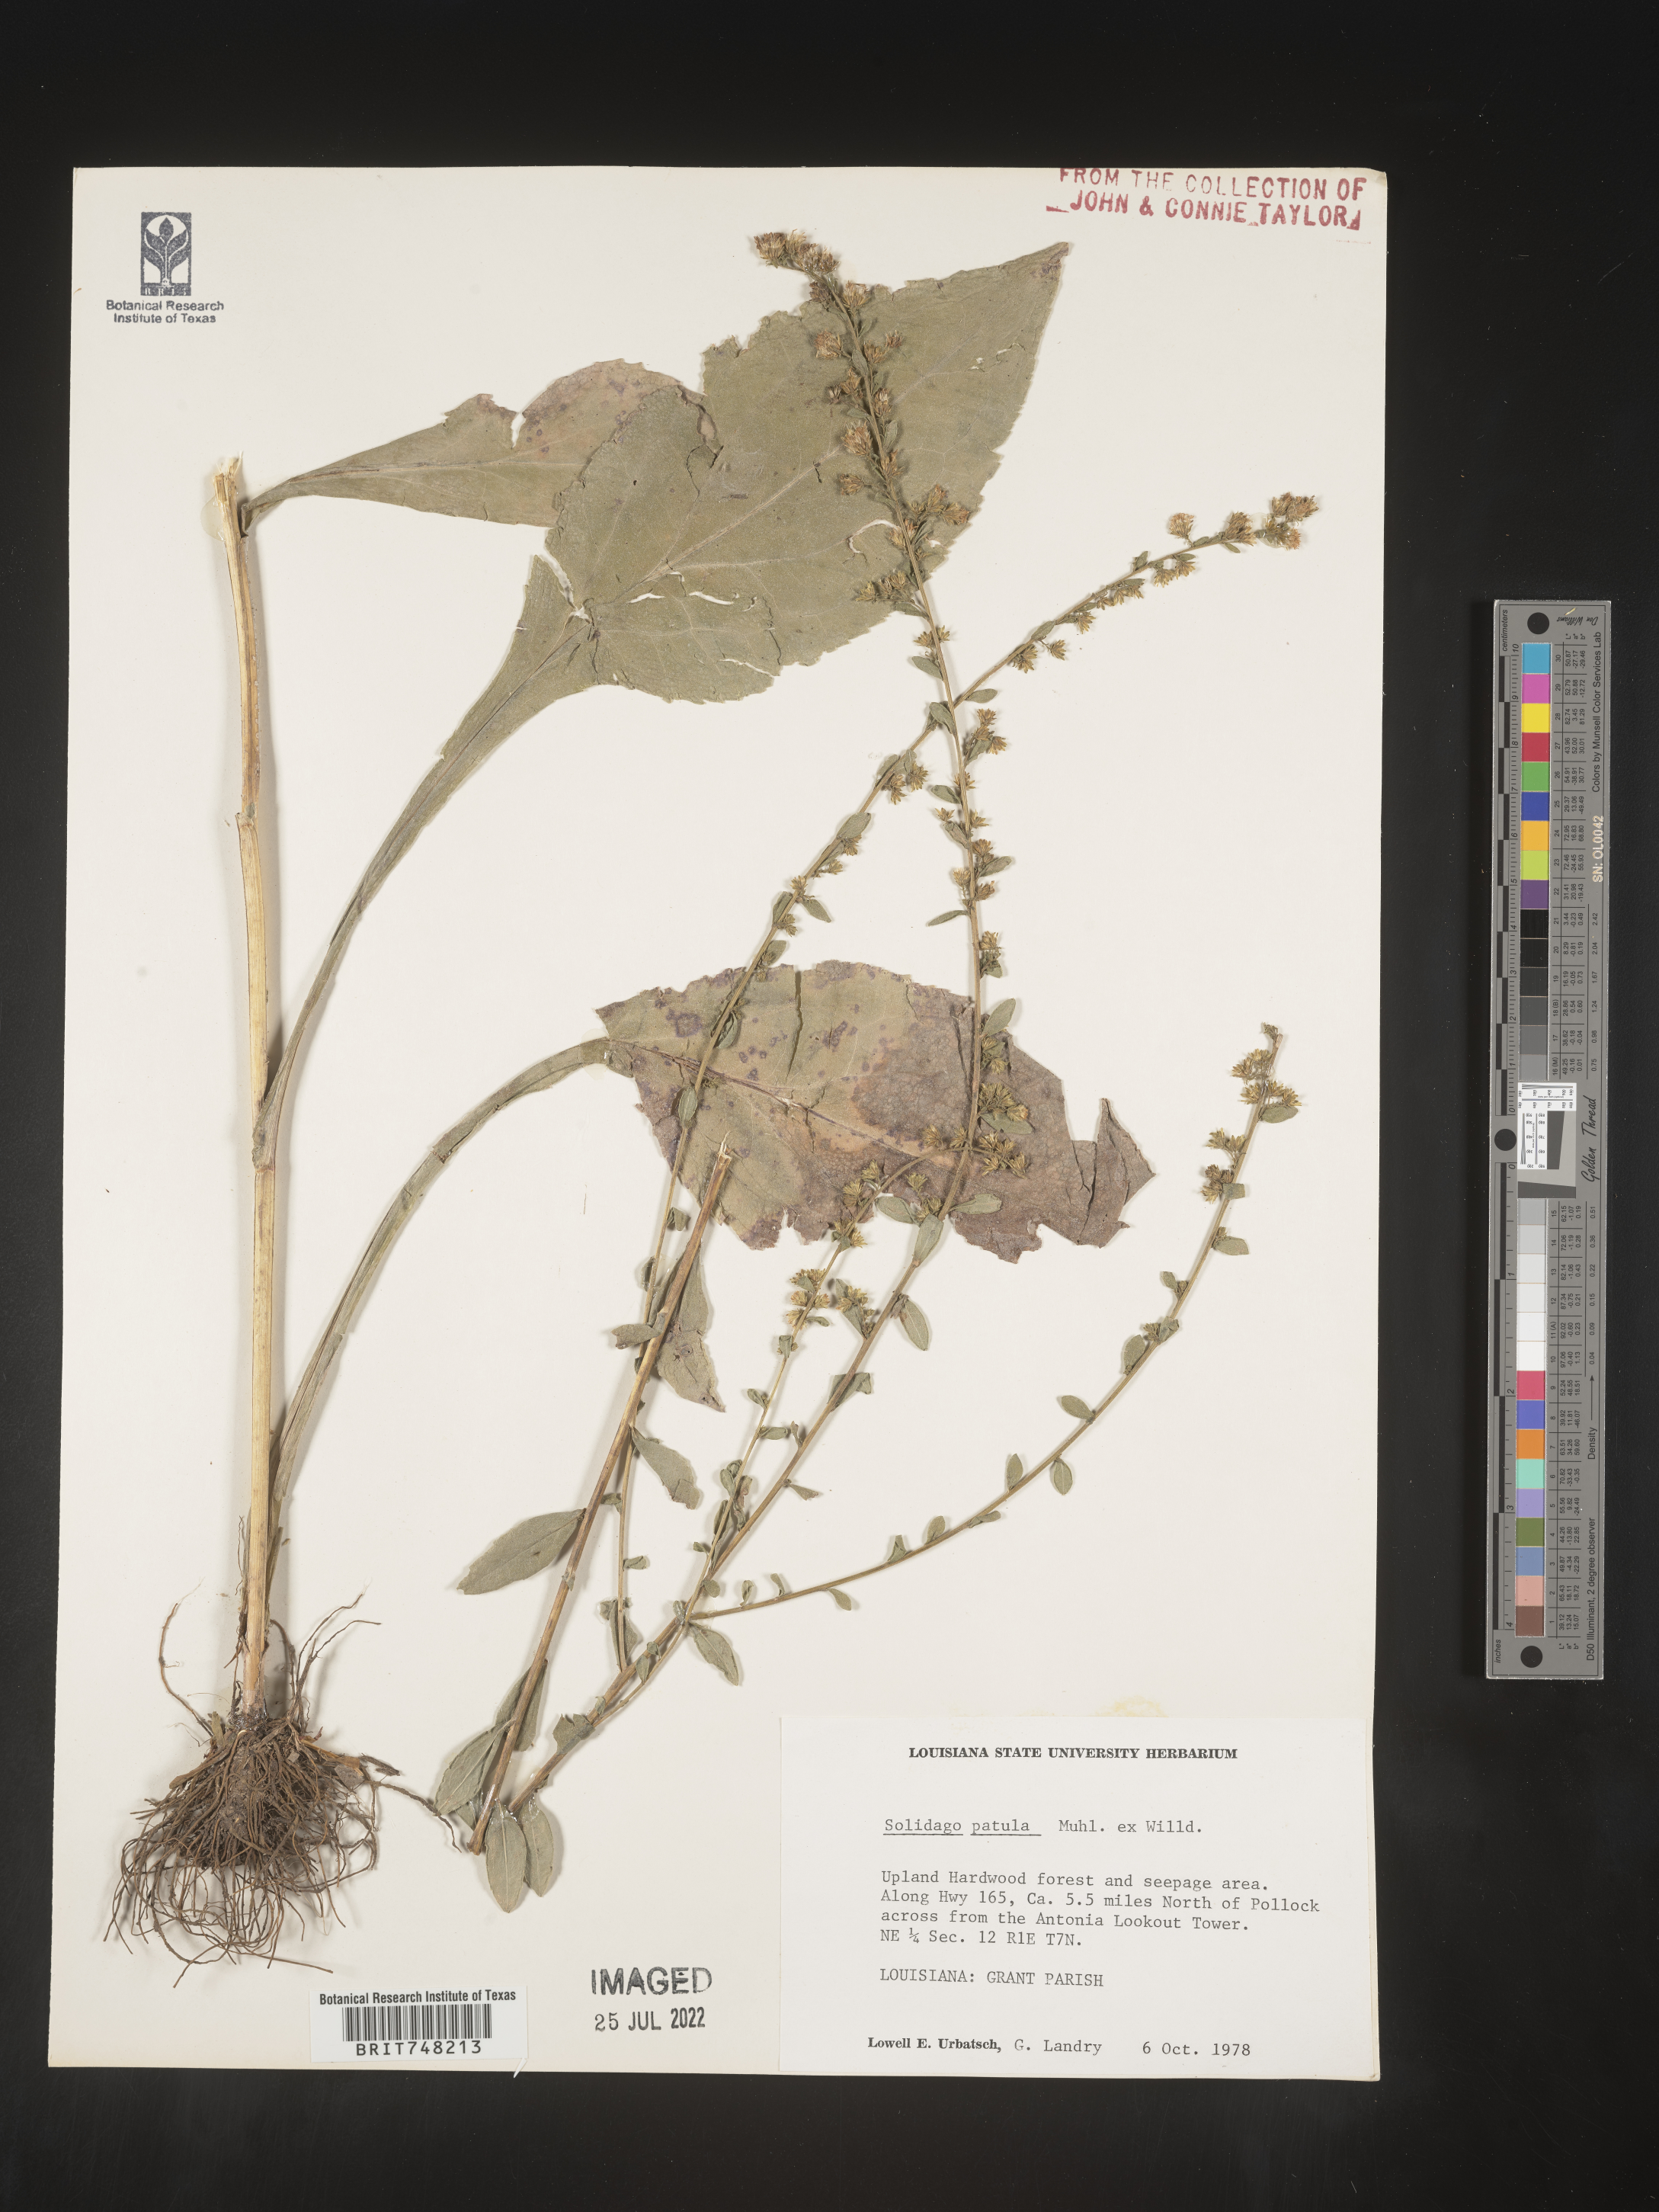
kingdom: Plantae
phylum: Tracheophyta
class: Magnoliopsida
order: Asterales
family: Asteraceae
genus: Solidago
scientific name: Solidago patula
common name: Rough-leaf goldenrod
